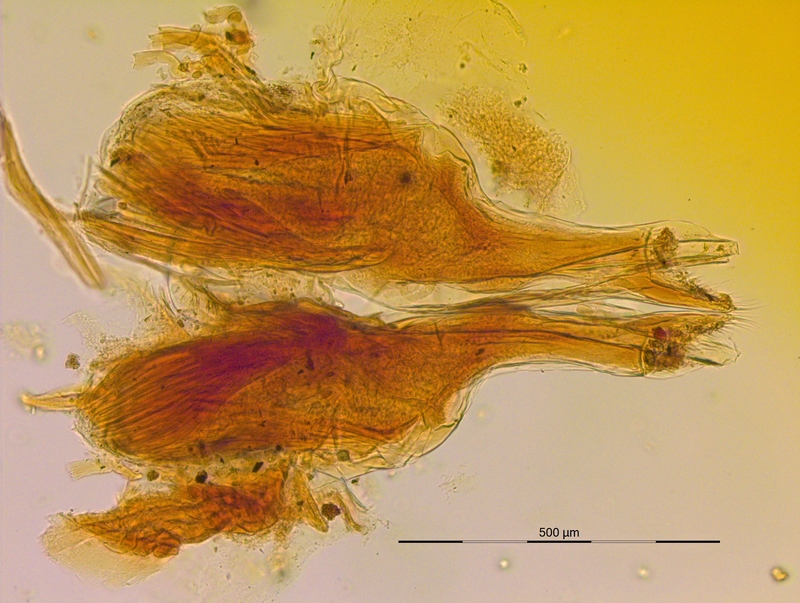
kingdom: Animalia
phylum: Arthropoda
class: Diplopoda
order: Julida
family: Mongoliulidae
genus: Skleroprotopus
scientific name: Skleroprotopus longiventris
